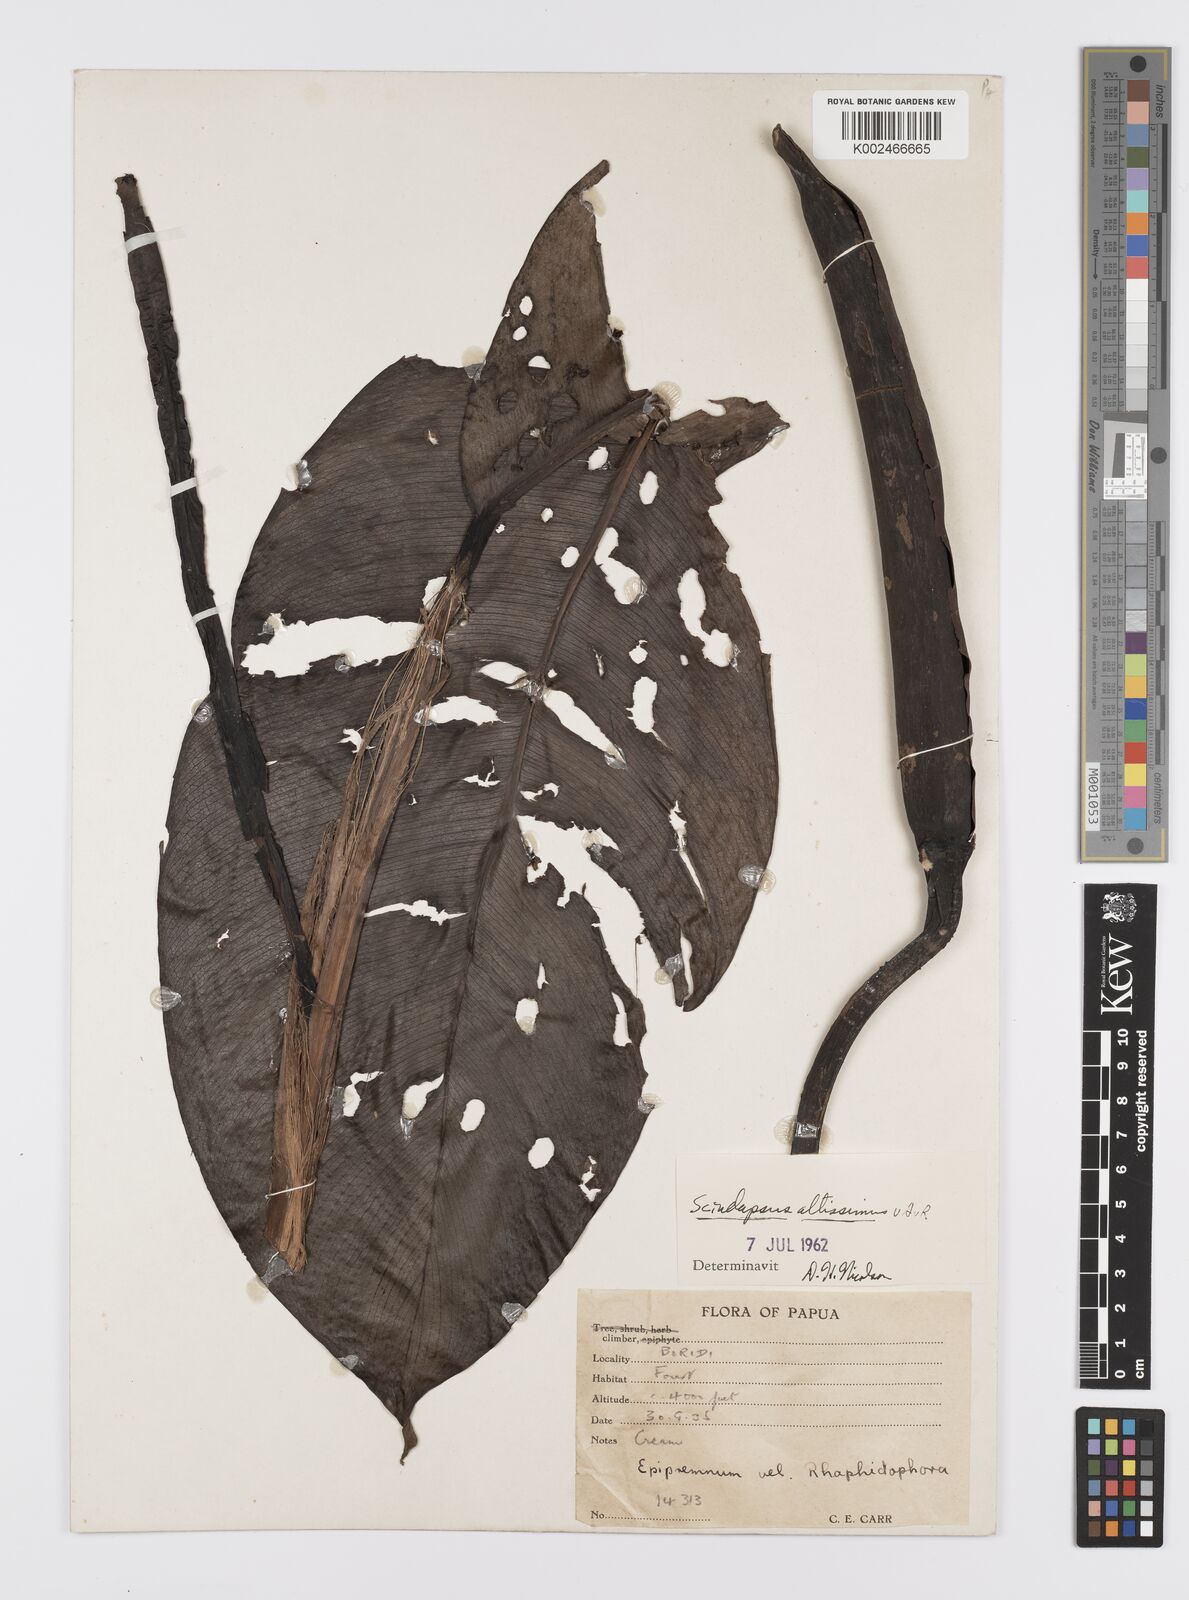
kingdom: Plantae
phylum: Tracheophyta
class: Liliopsida
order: Alismatales
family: Araceae
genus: Scindapsus
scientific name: Scindapsus altissimus
